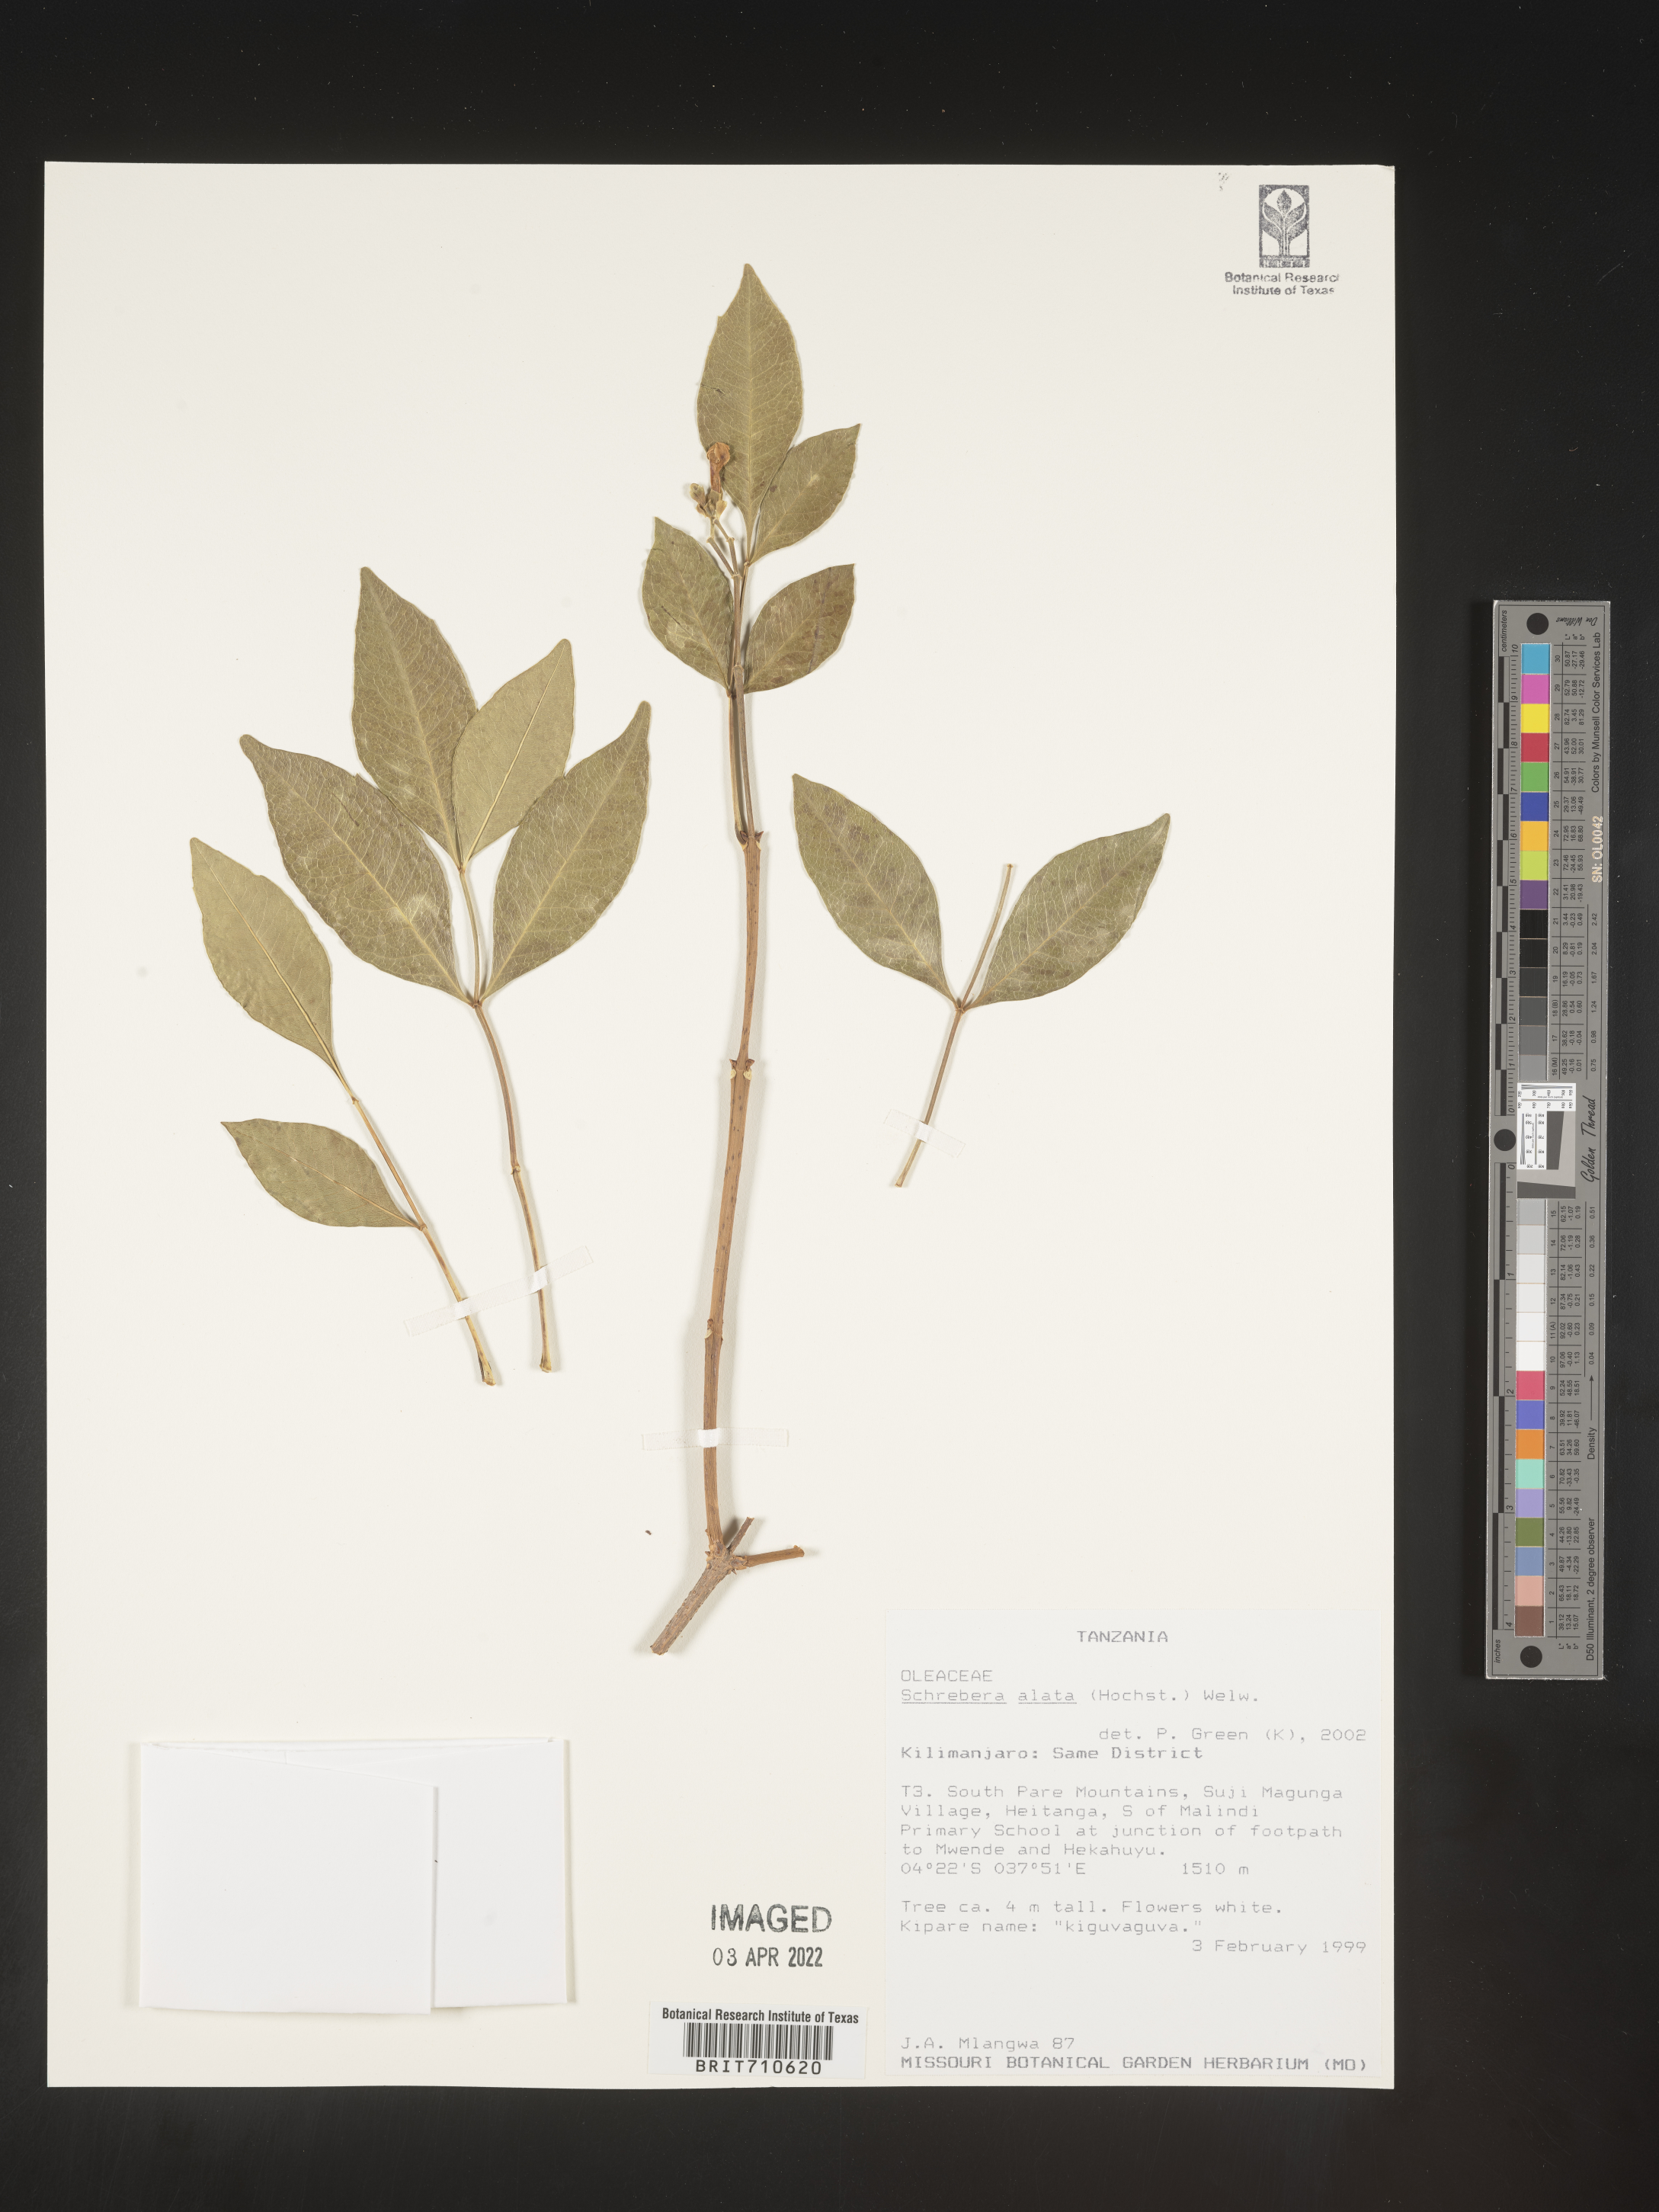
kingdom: Plantae
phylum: Tracheophyta
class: Magnoliopsida
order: Lamiales
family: Oleaceae
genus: Schrebera
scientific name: Schrebera
